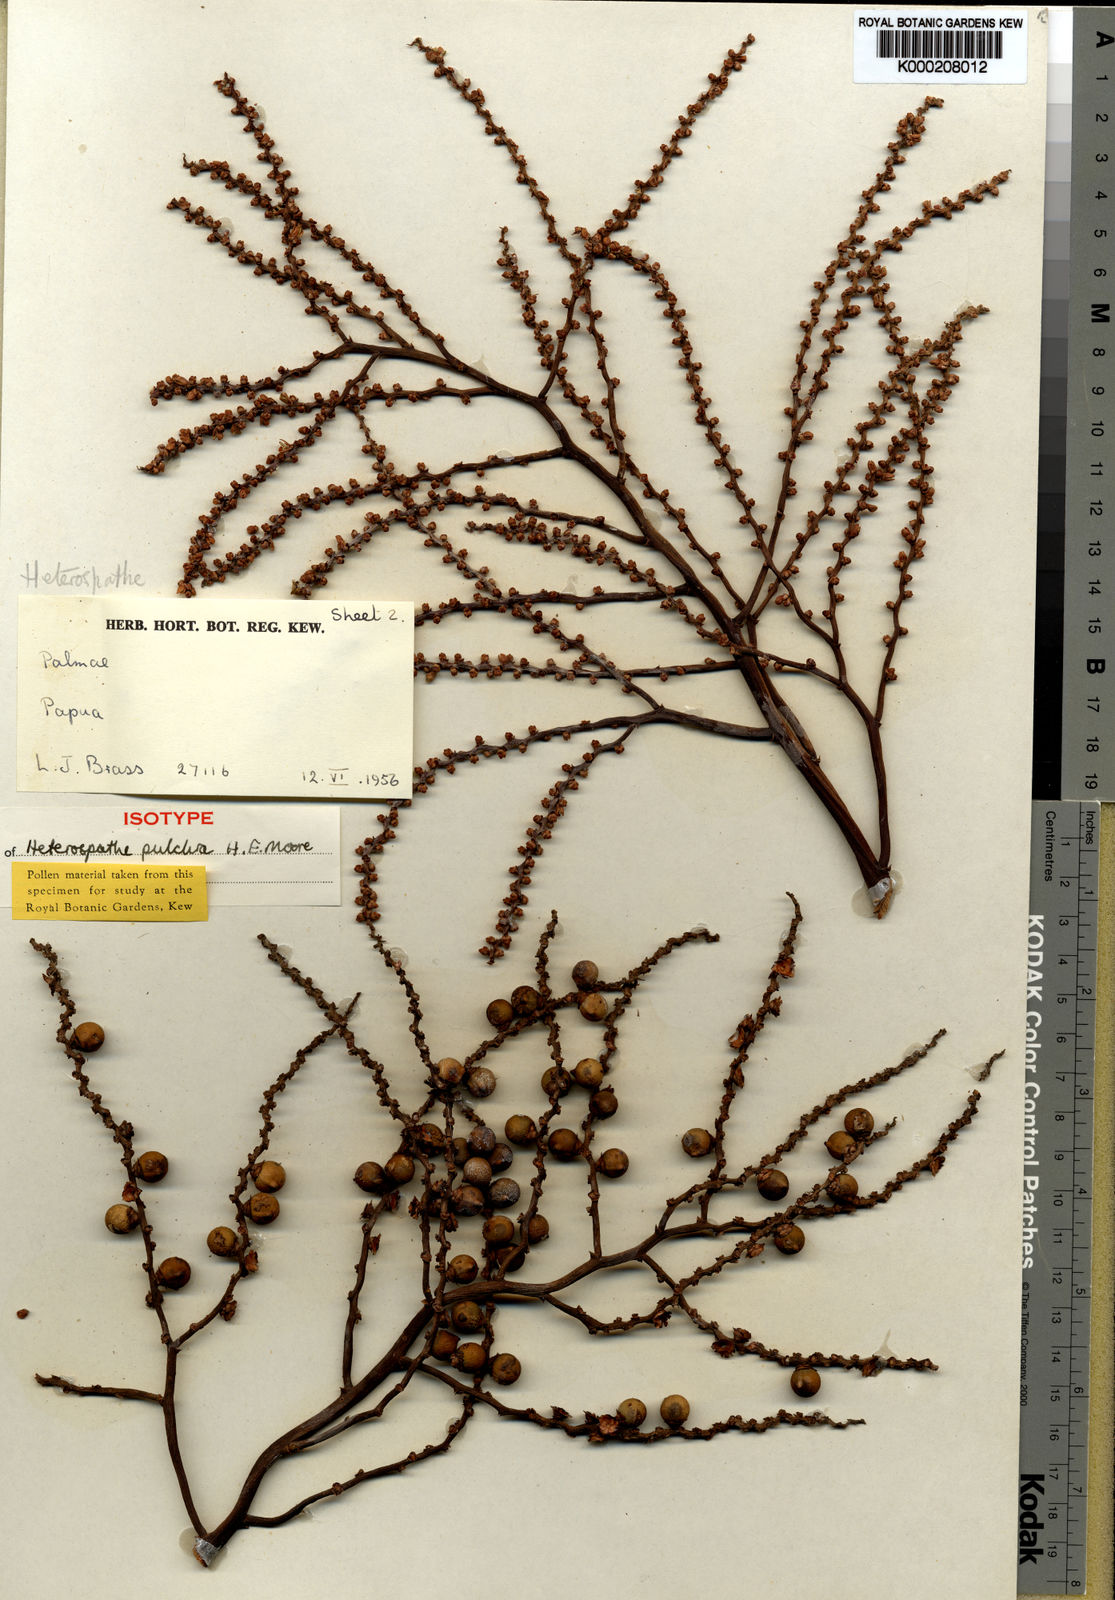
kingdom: Plantae
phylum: Tracheophyta
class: Liliopsida
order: Arecales
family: Arecaceae
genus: Heterospathe
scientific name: Heterospathe pulchra
